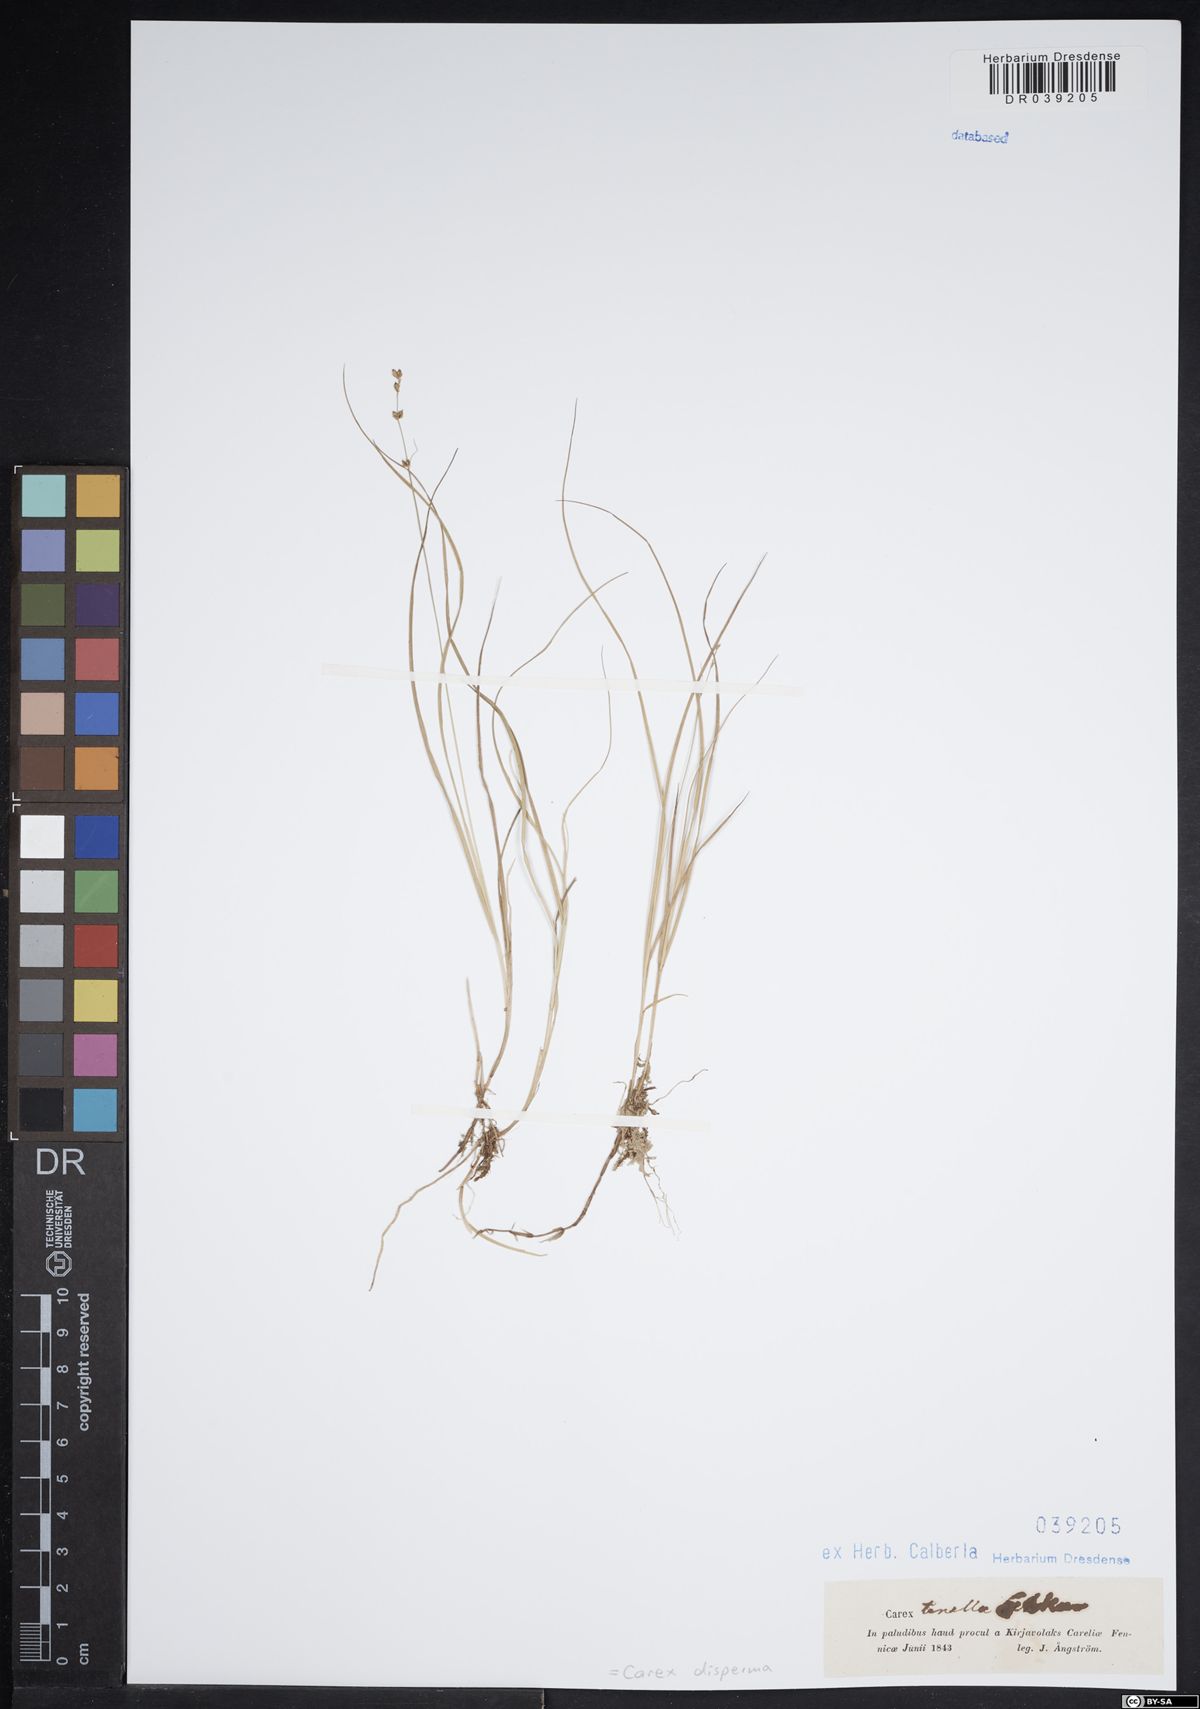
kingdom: Plantae
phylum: Tracheophyta
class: Liliopsida
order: Poales
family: Cyperaceae
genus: Carex
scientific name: Carex disperma
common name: Short-leaved sedge
